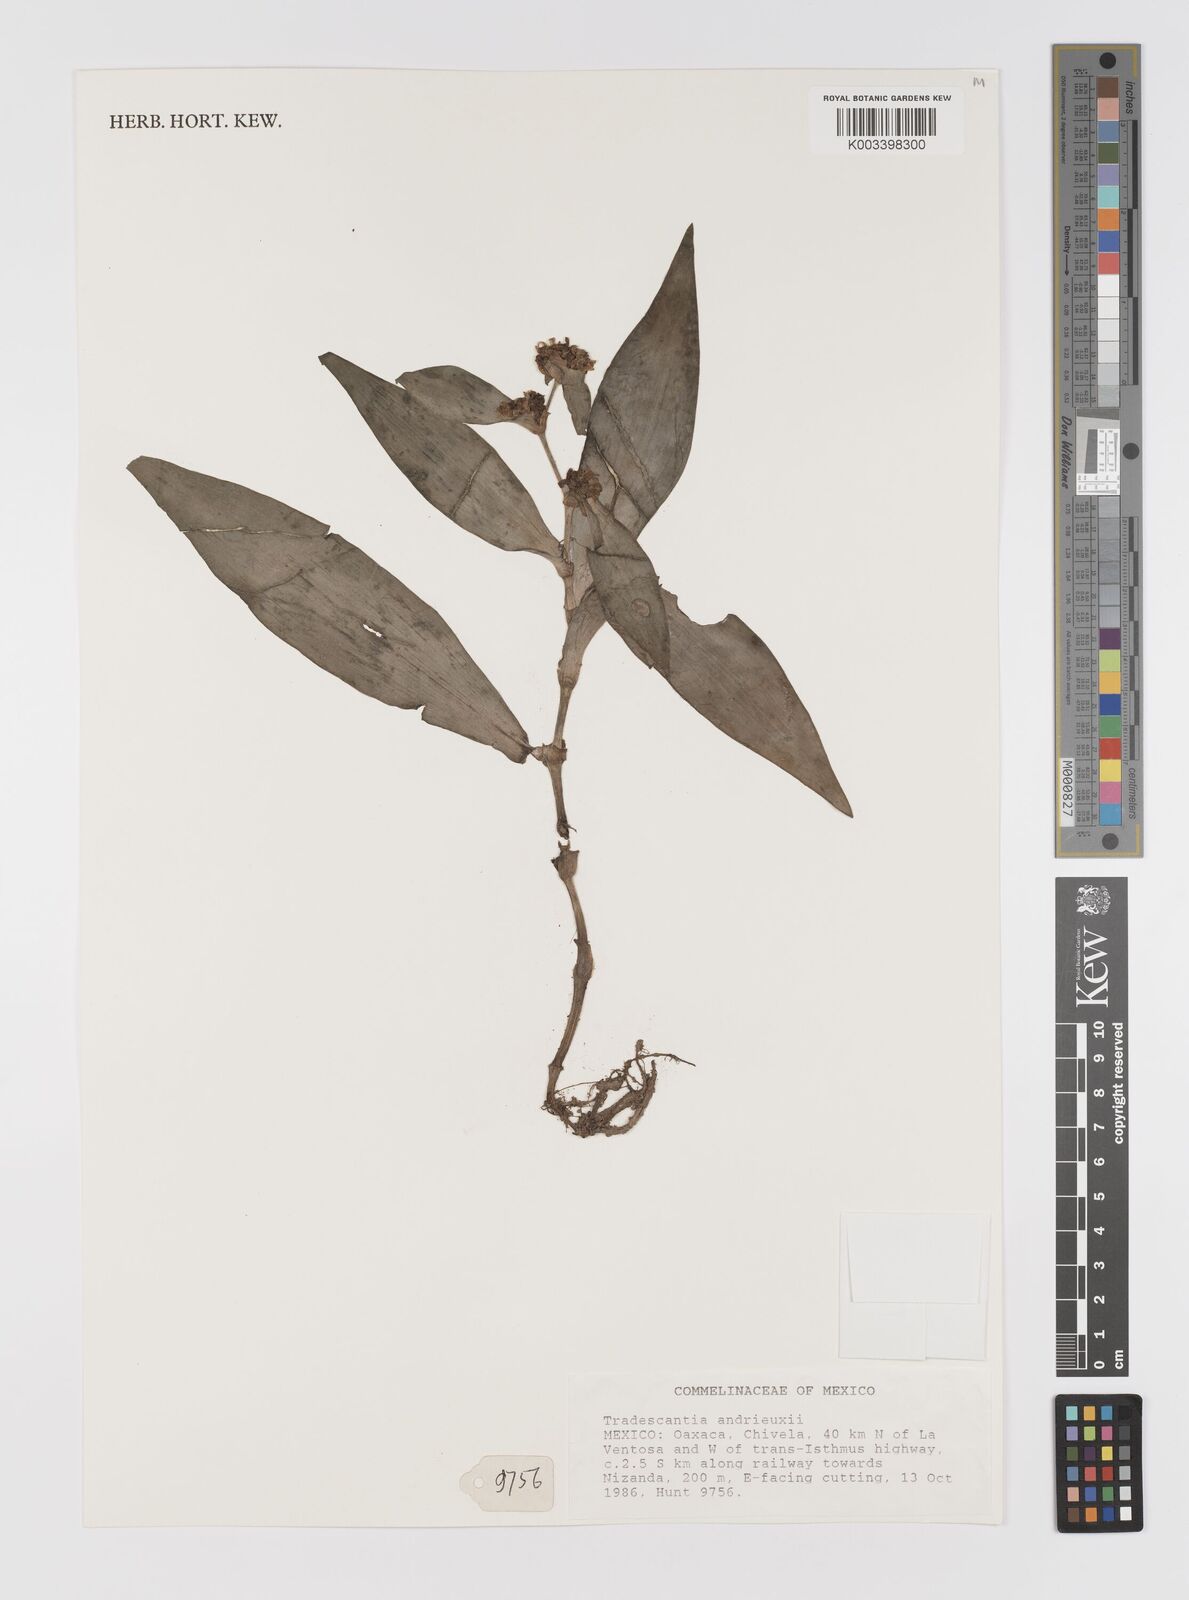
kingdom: Plantae
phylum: Tracheophyta
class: Liliopsida
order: Commelinales
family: Commelinaceae
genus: Tradescantia
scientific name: Tradescantia andrieuxii
